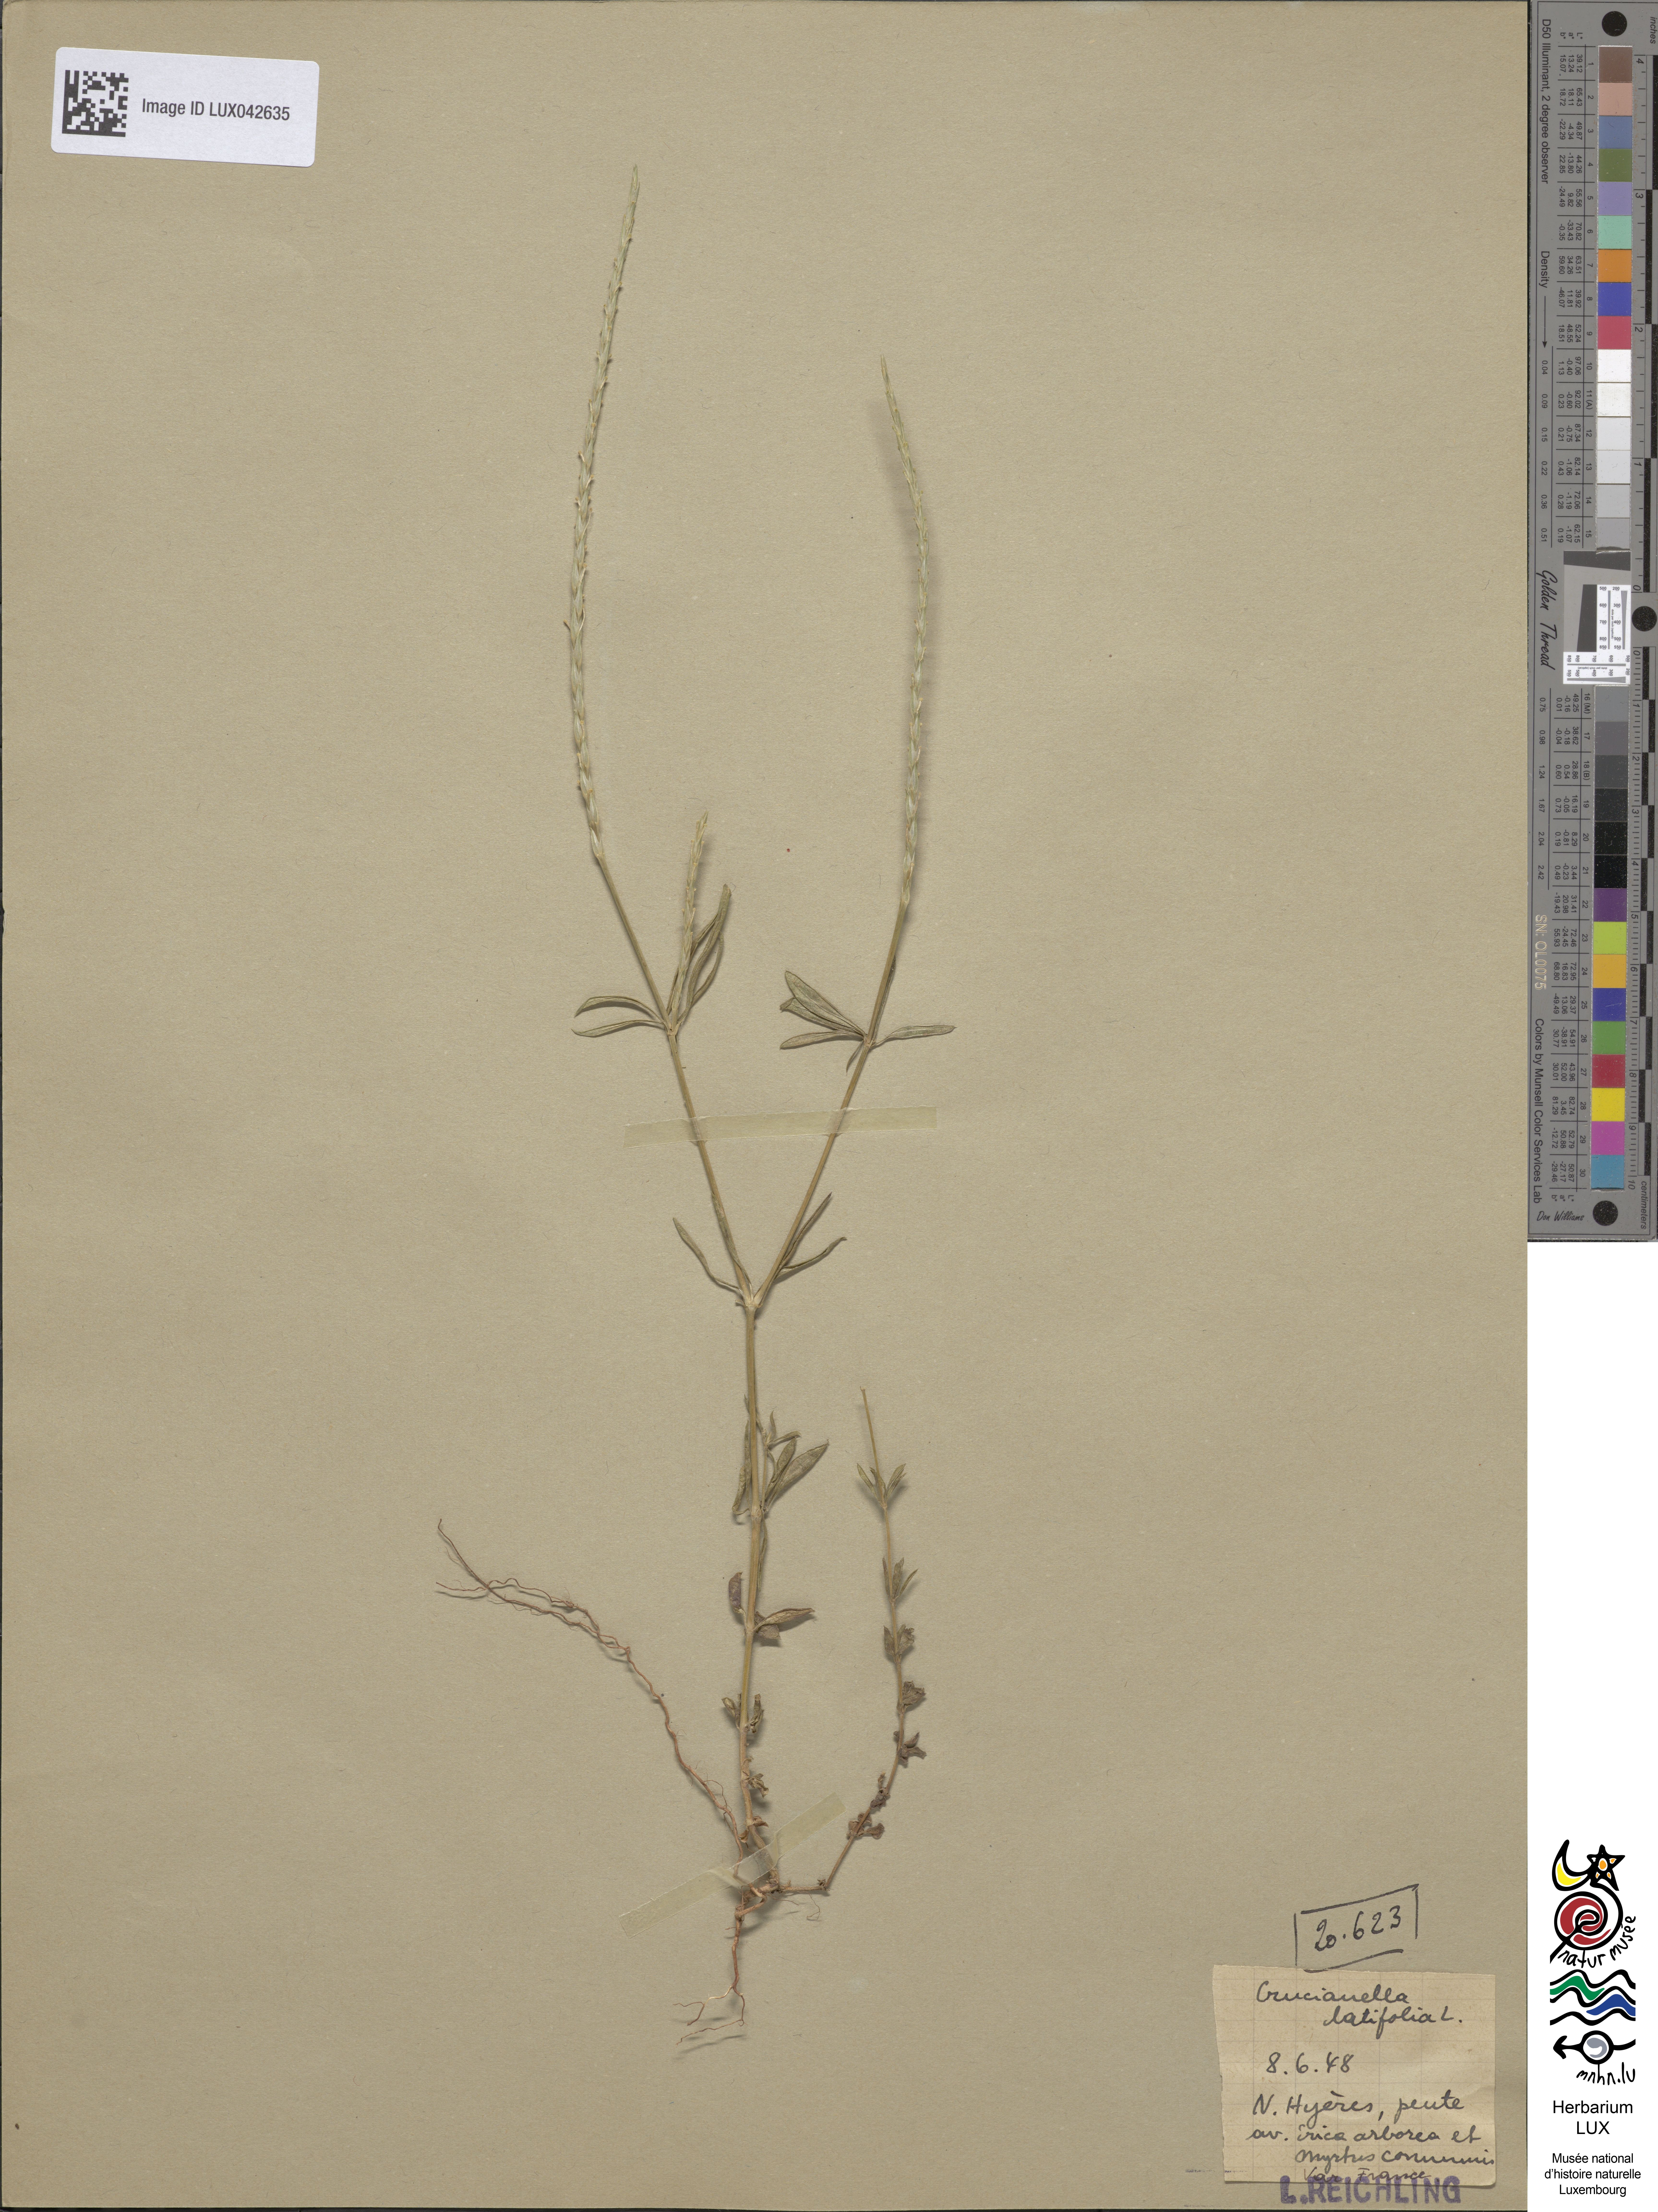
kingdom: Plantae
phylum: Tracheophyta
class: Magnoliopsida
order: Gentianales
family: Rubiaceae
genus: Crucianella
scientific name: Crucianella latifolia
